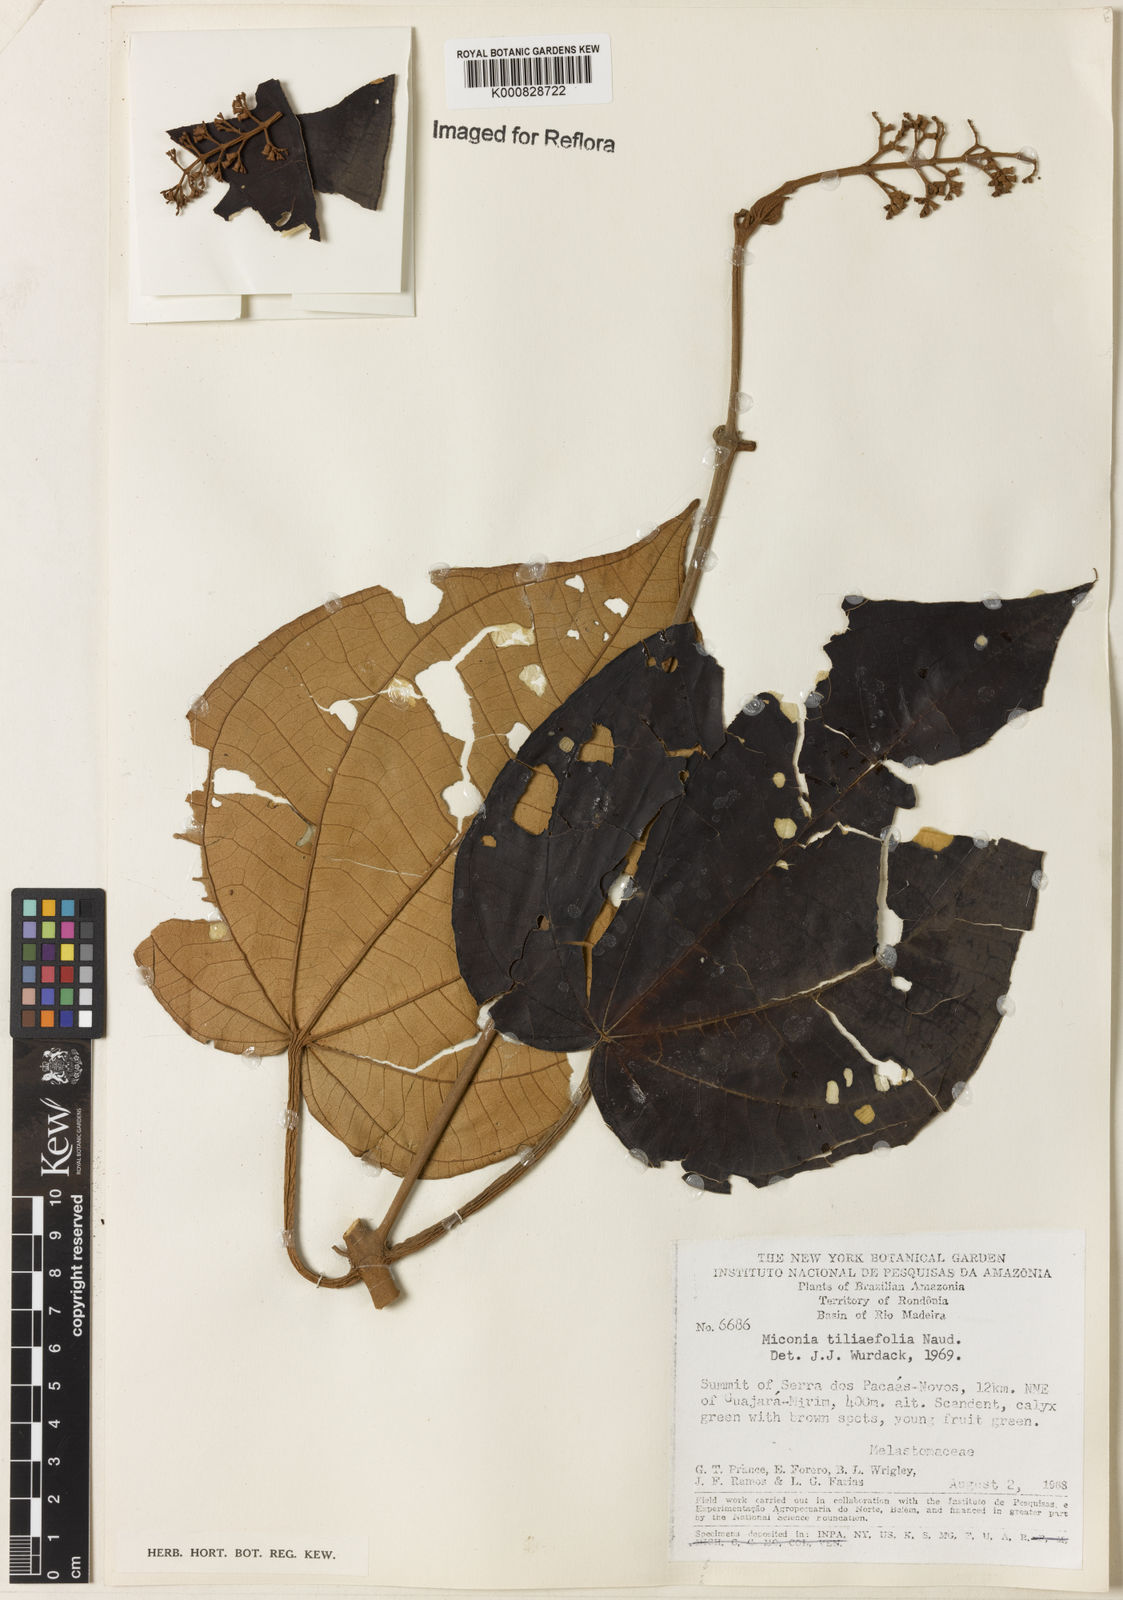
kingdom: Plantae
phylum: Tracheophyta
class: Magnoliopsida
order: Myrtales
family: Melastomataceae
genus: Miconia
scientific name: Miconia
